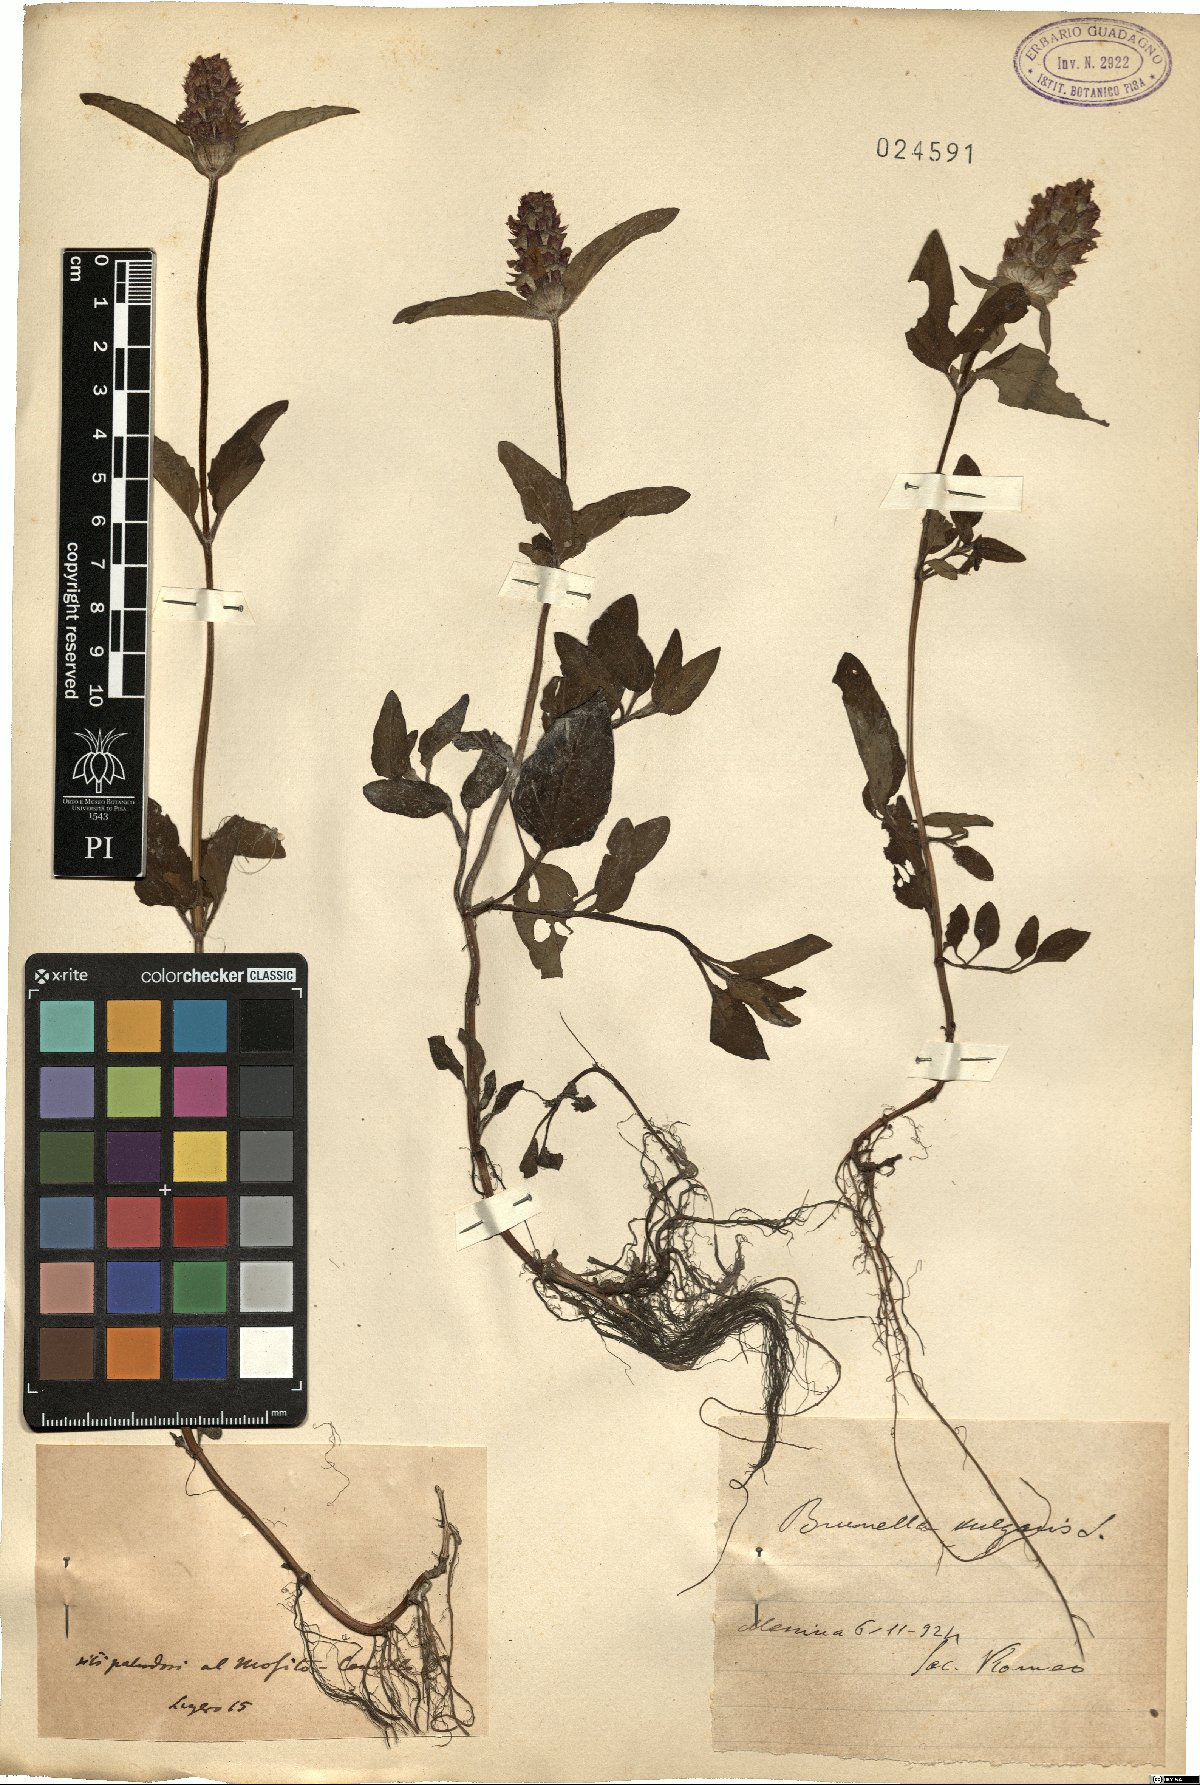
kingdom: Plantae
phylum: Tracheophyta
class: Magnoliopsida
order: Lamiales
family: Lamiaceae
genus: Prunella
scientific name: Prunella vulgaris
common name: Heal-all
